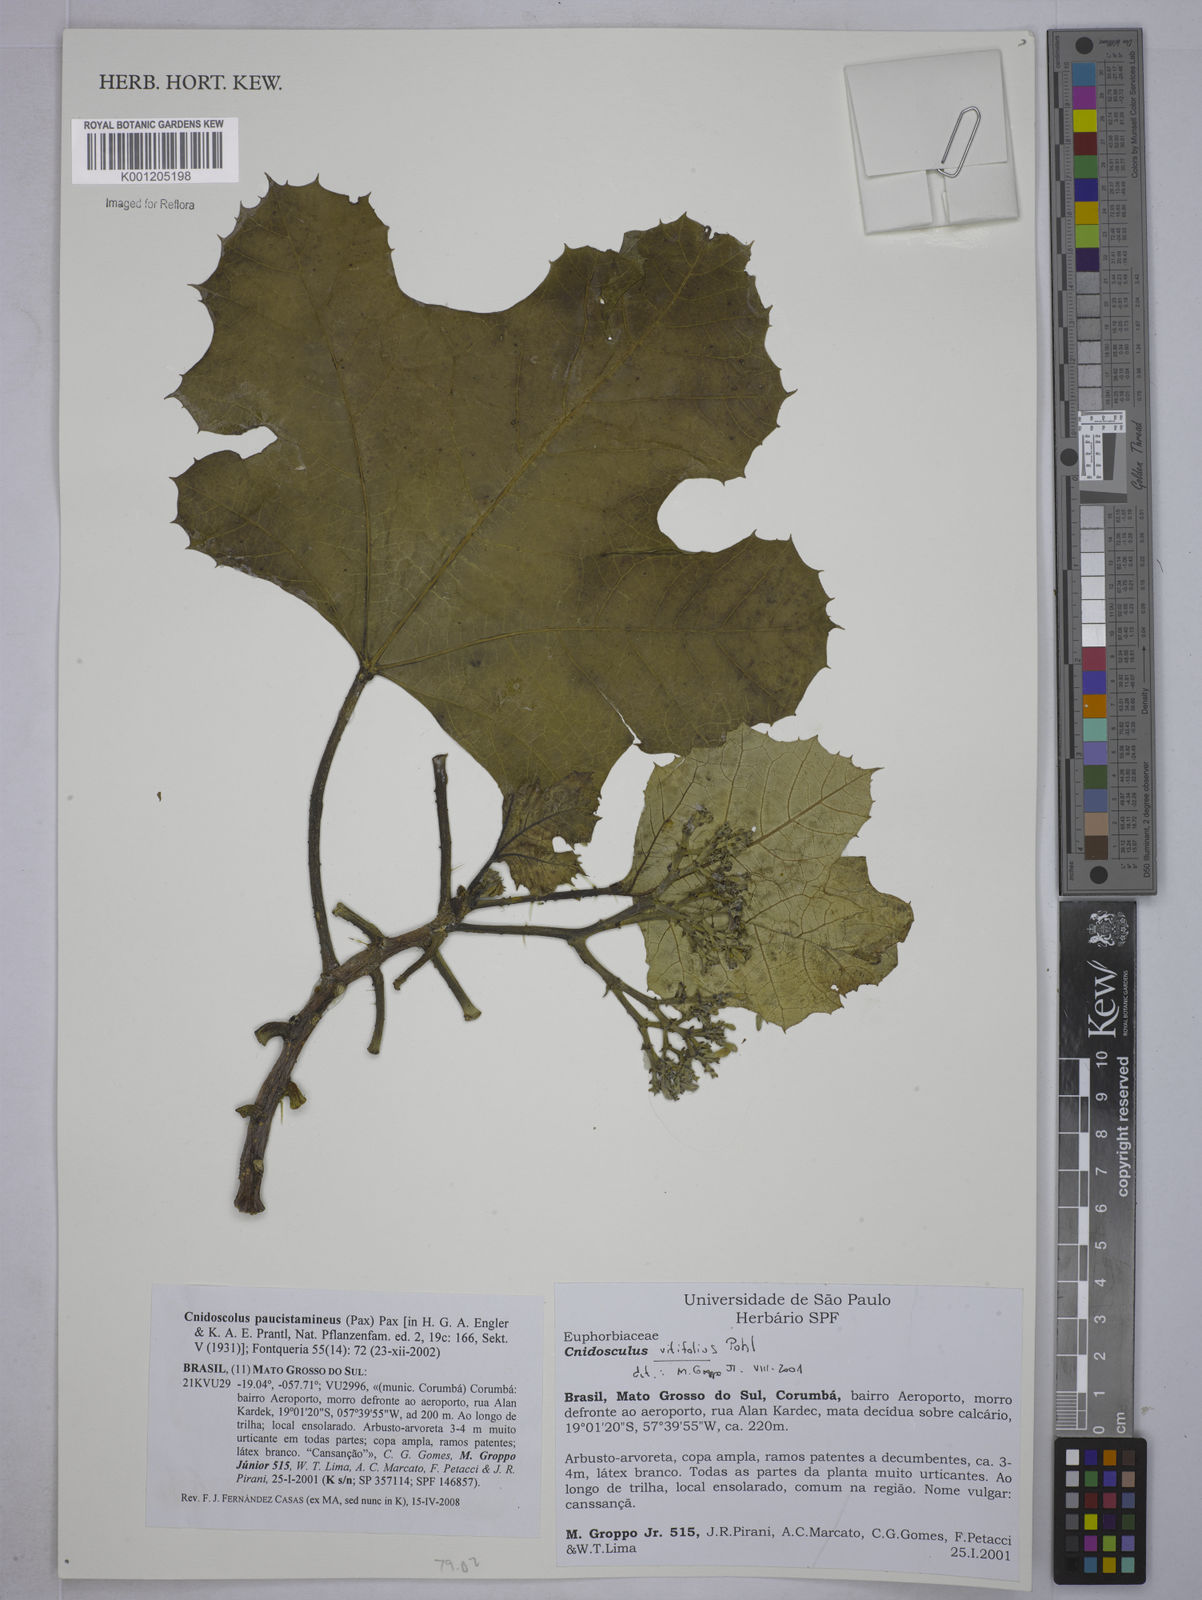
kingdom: Plantae
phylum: Tracheophyta
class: Magnoliopsida
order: Malpighiales
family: Euphorbiaceae
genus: Cnidoscolus
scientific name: Cnidoscolus paucistamineus
